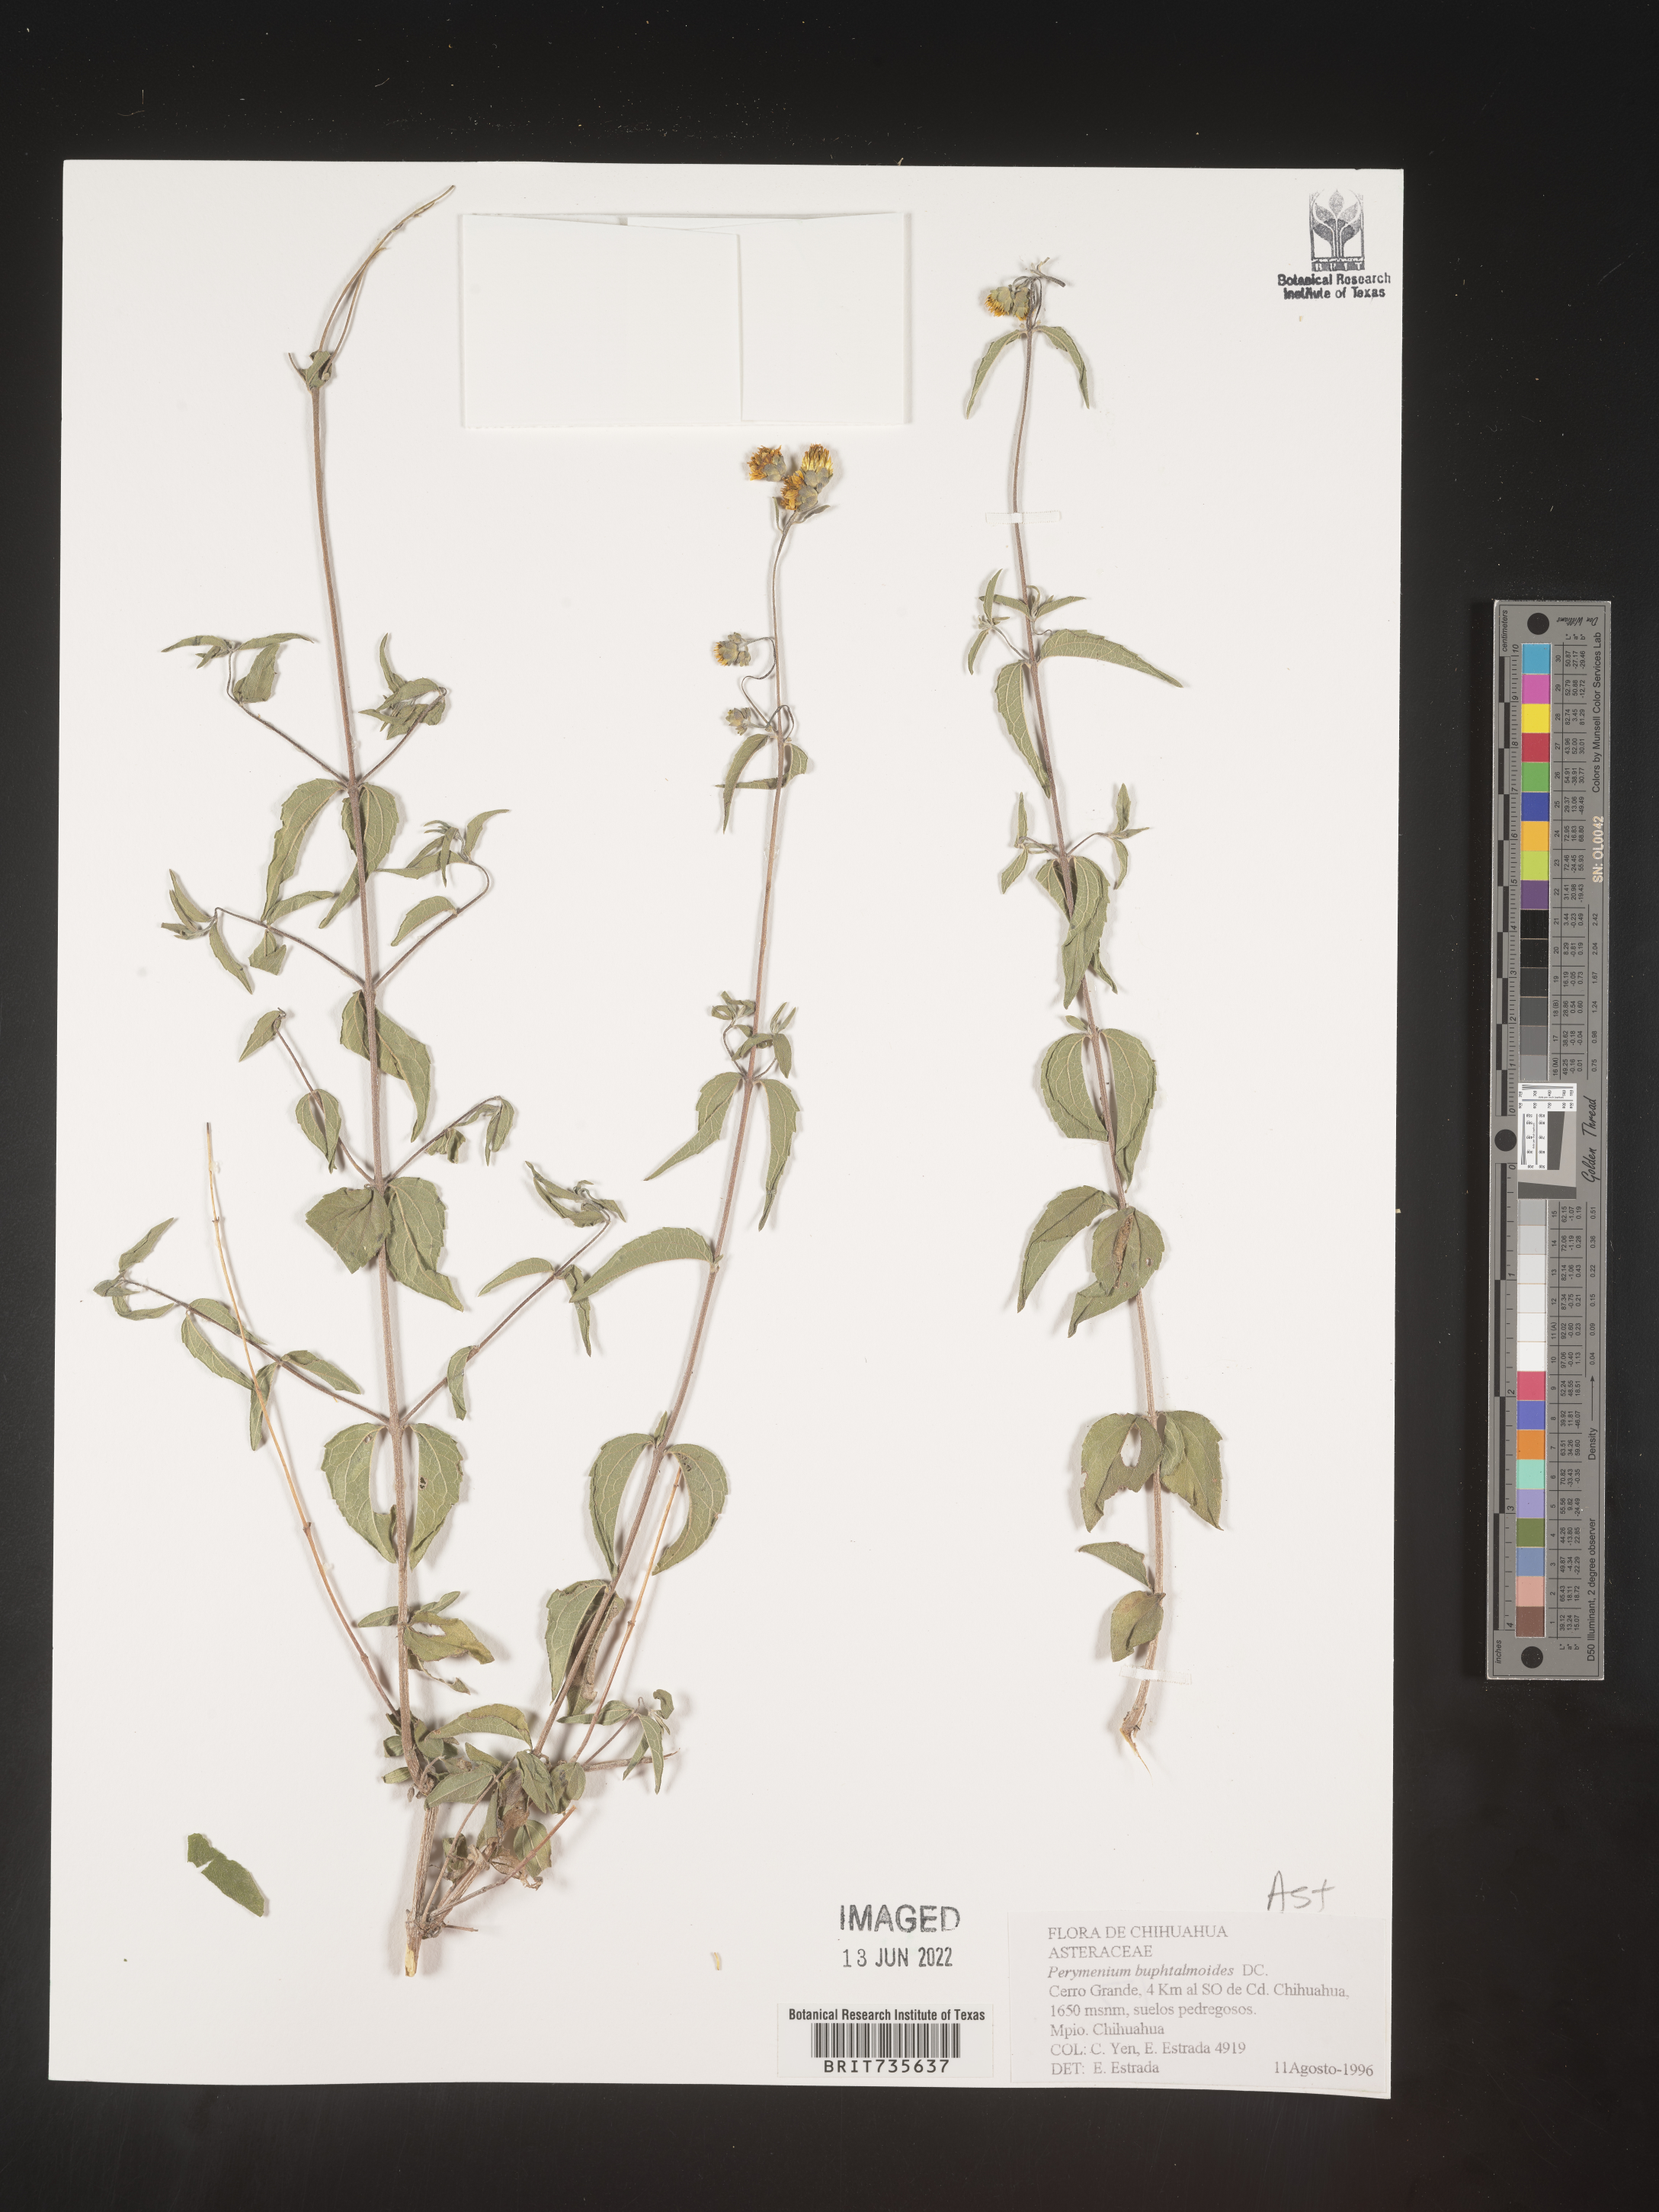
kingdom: Plantae
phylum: Tracheophyta
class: Magnoliopsida
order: Asterales
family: Asteraceae
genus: Perymenium
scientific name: Perymenium
